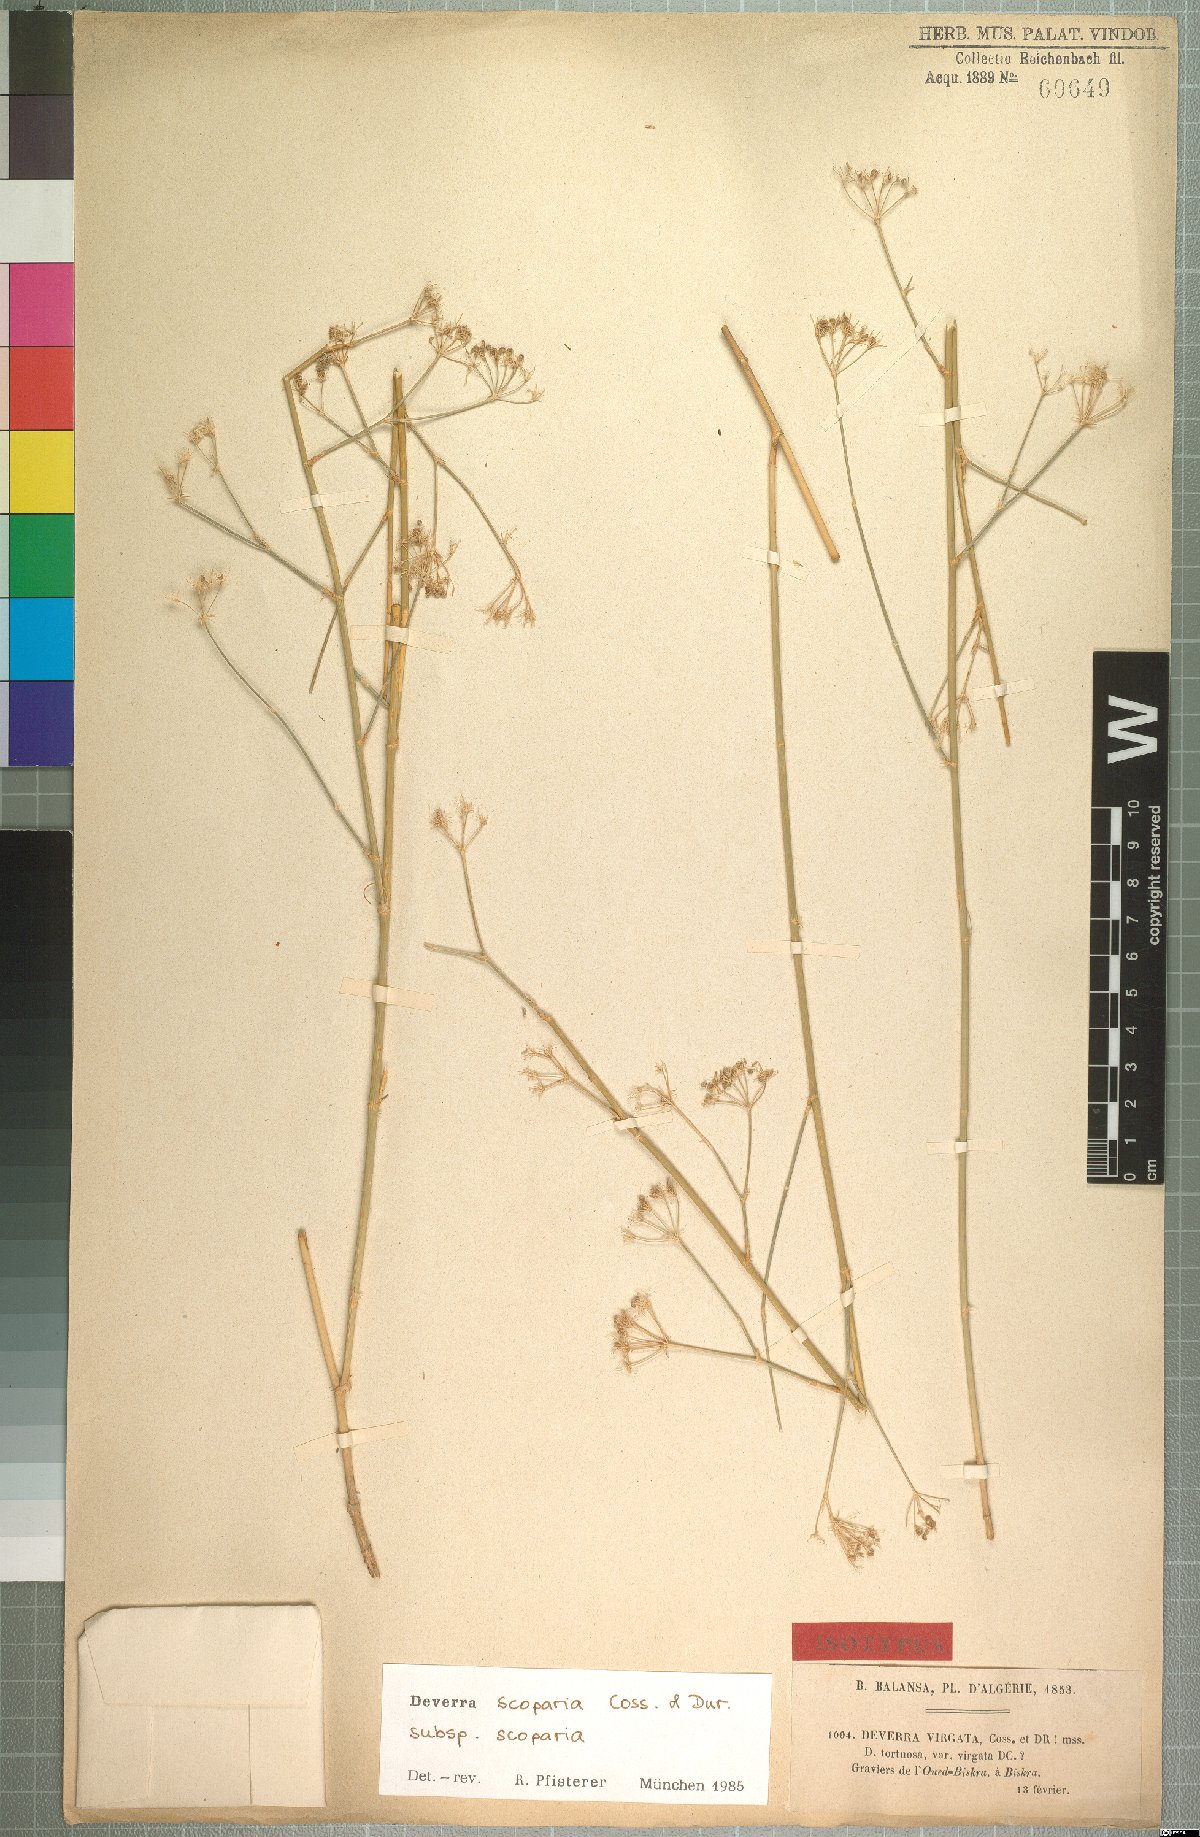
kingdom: Plantae
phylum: Tracheophyta
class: Magnoliopsida
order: Apiales
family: Apiaceae
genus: Deverra
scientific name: Deverra scoparia
